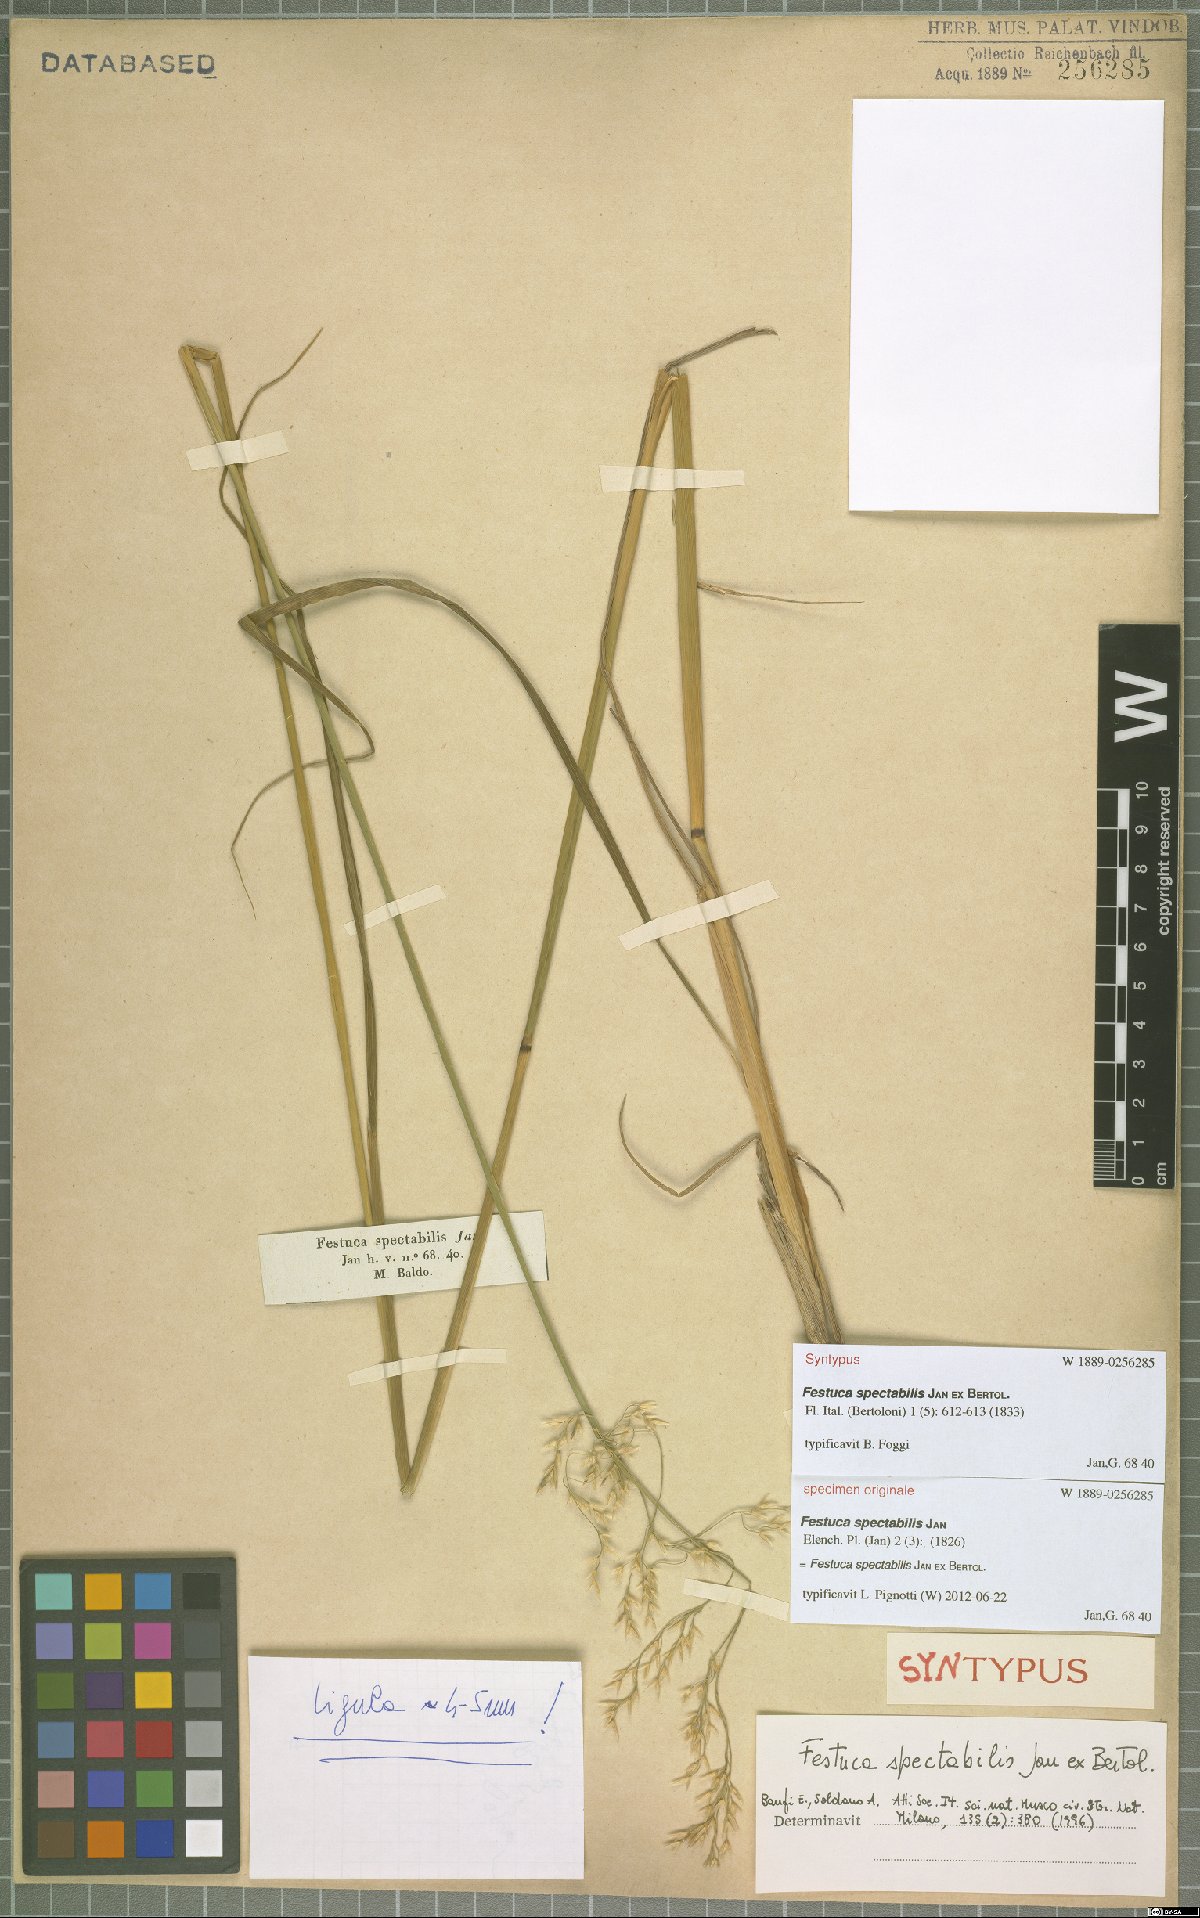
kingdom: Plantae
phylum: Tracheophyta
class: Liliopsida
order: Poales
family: Poaceae
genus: Festuca
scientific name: Festuca spectabilis
